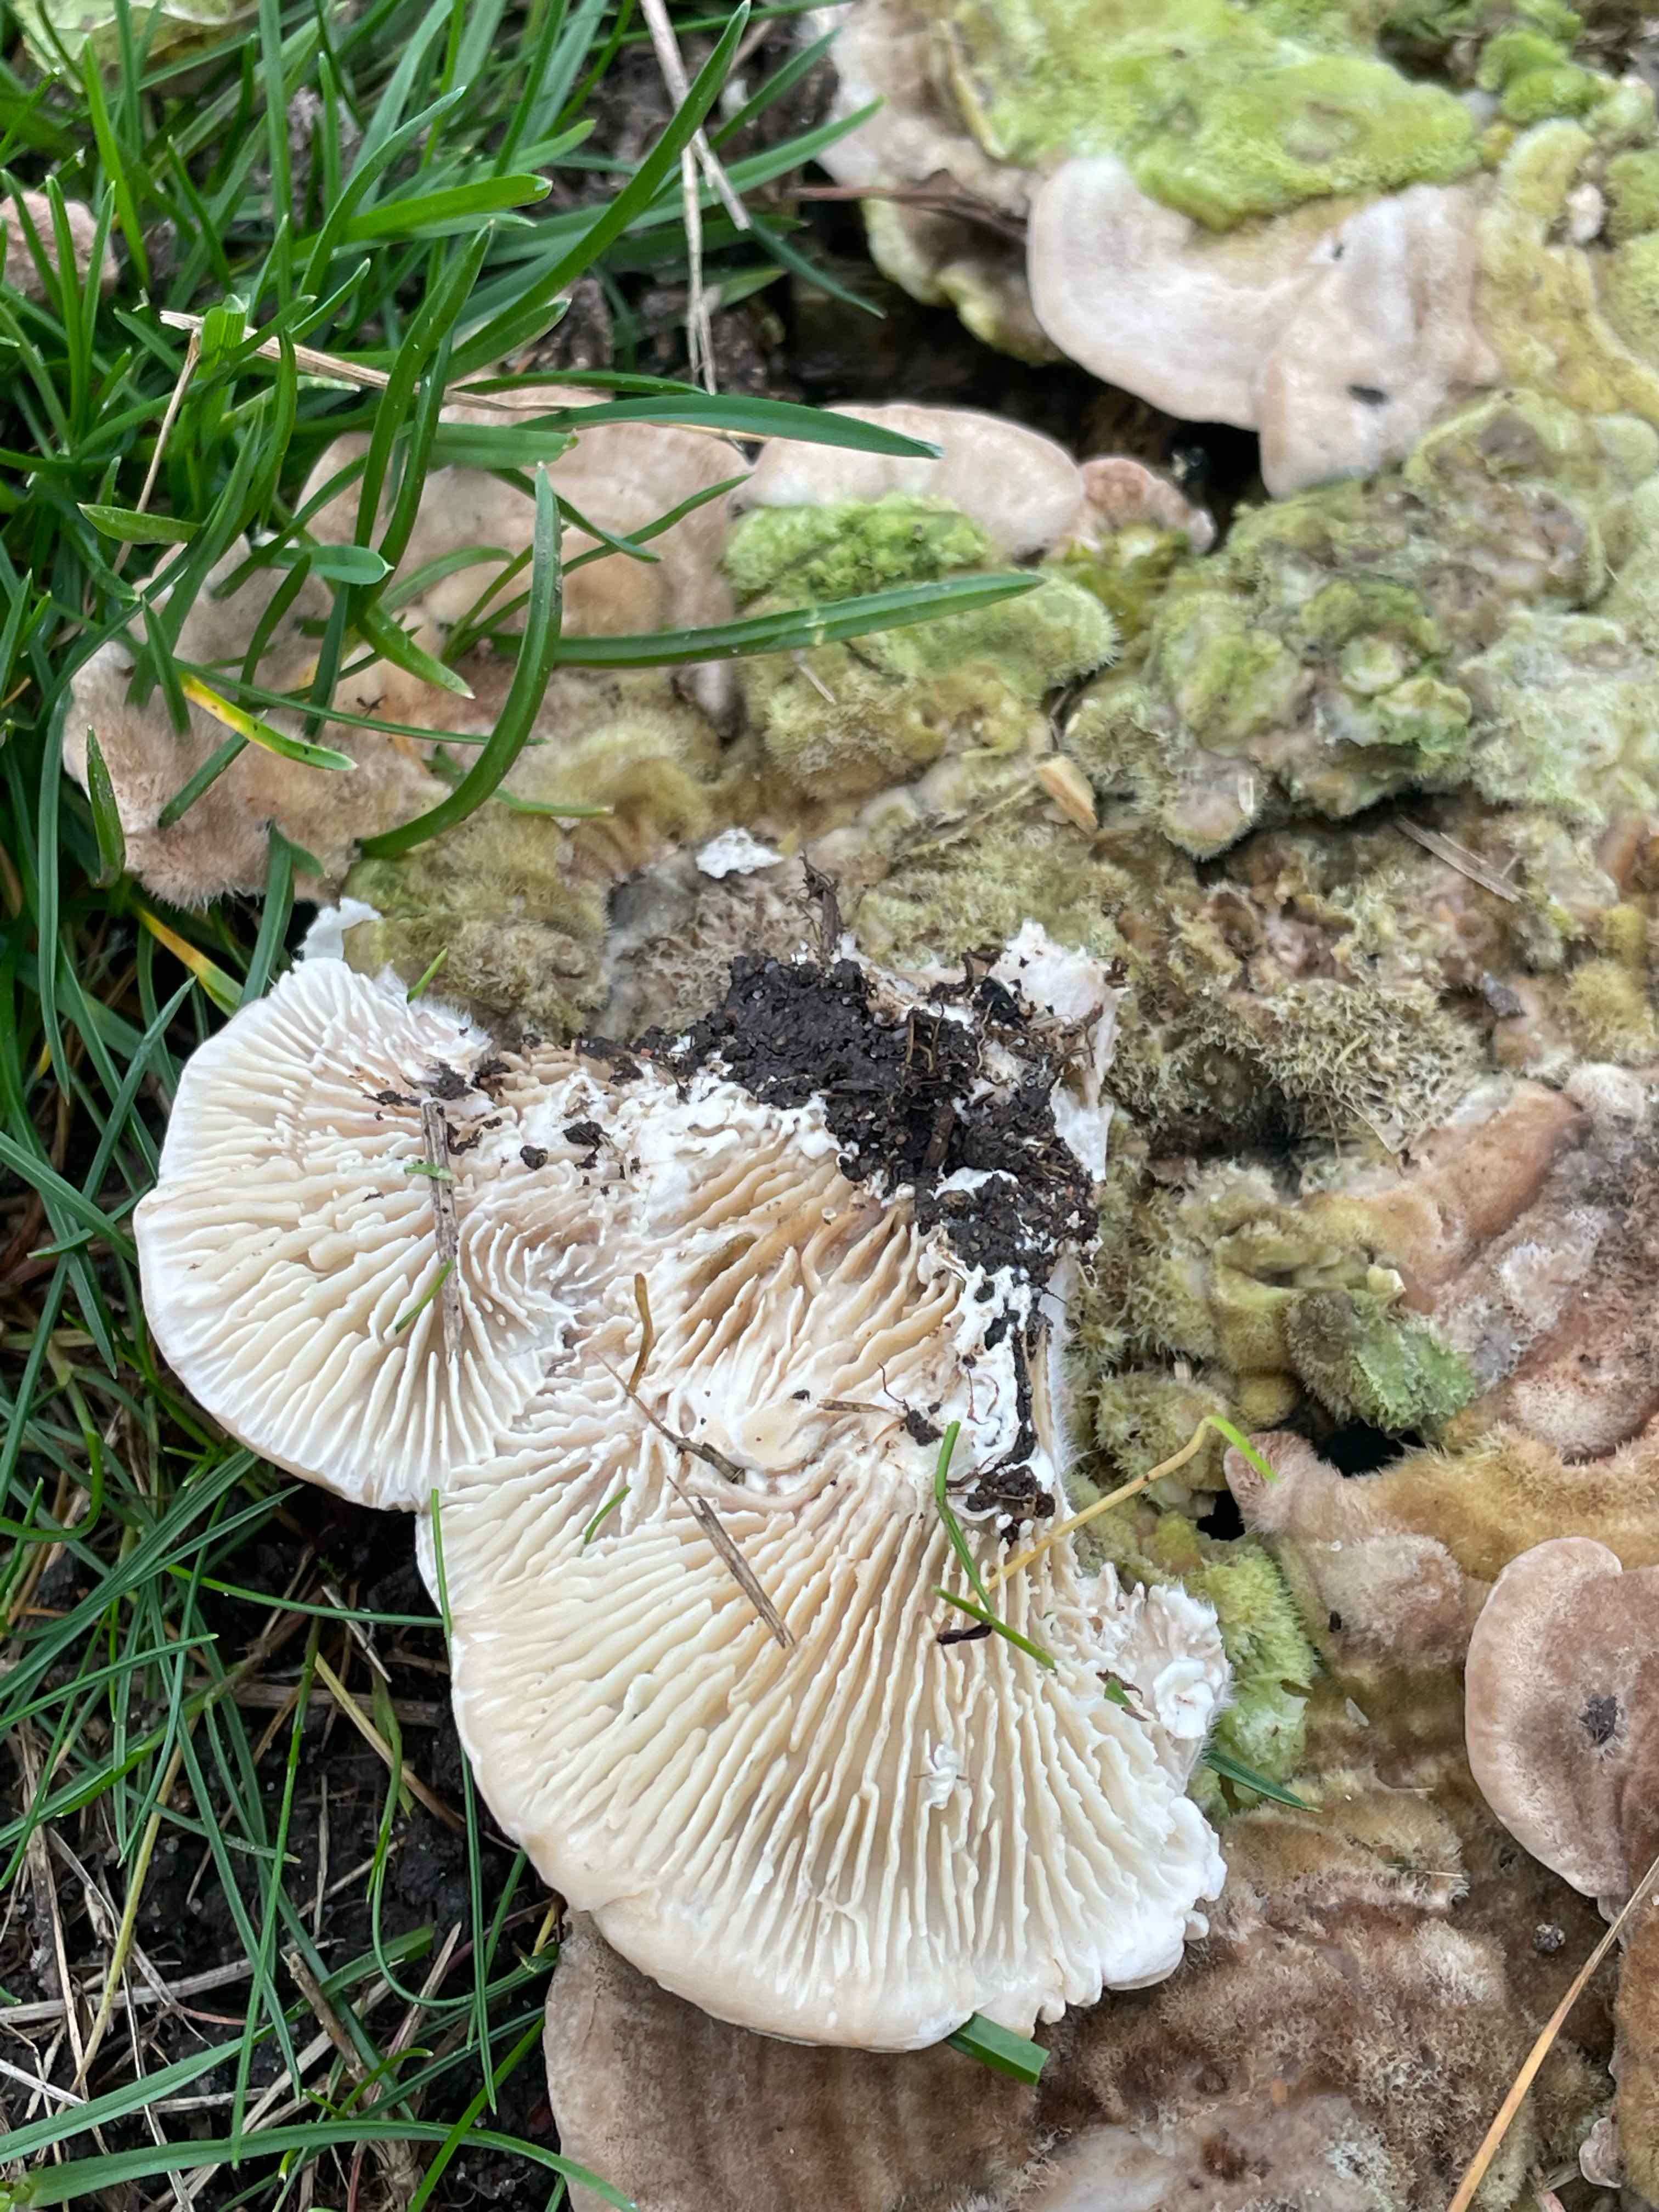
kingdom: Fungi
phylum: Basidiomycota
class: Agaricomycetes
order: Polyporales
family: Polyporaceae
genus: Lenzites
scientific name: Lenzites betulinus
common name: birke-læderporesvamp
